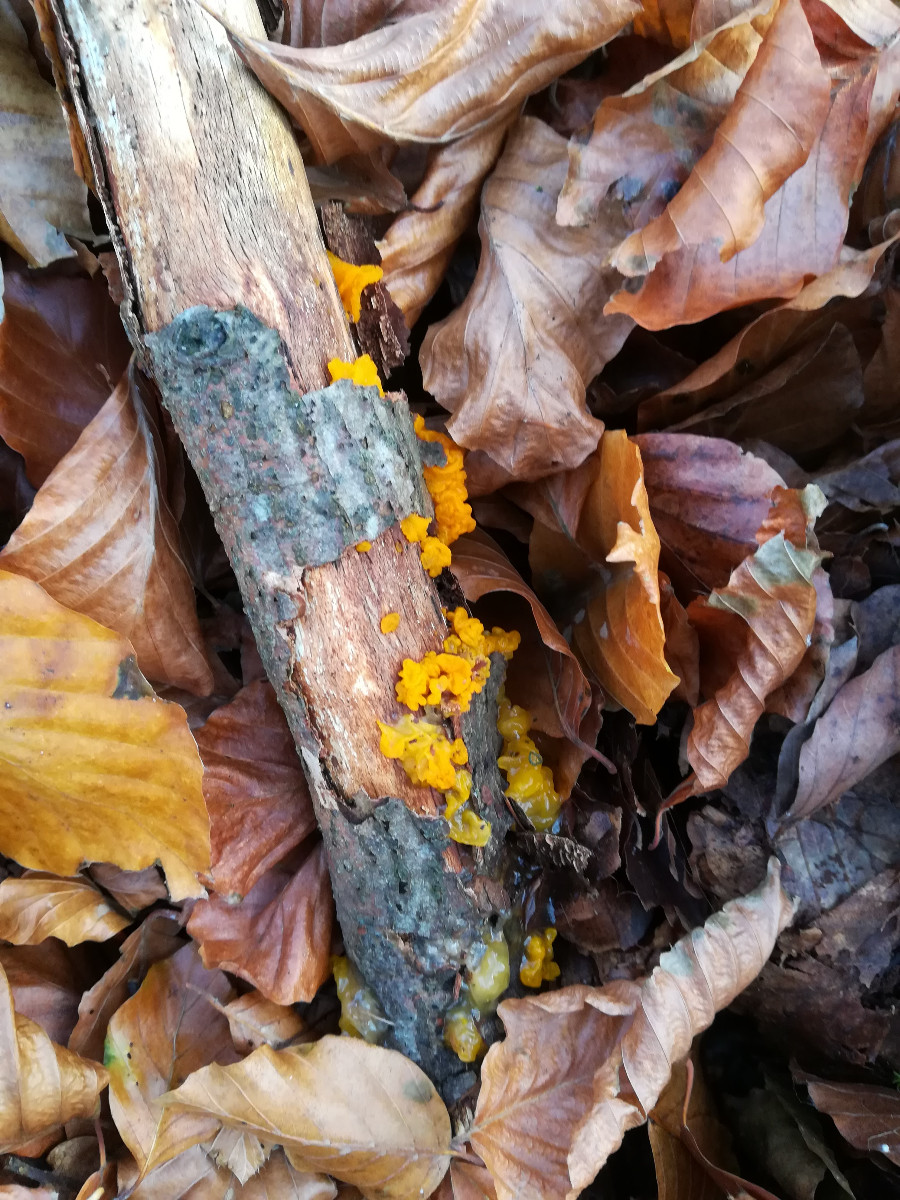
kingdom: Fungi
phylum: Basidiomycota
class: Tremellomycetes
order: Tremellales
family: Tremellaceae
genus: Tremella
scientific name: Tremella mesenterica
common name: gul bævresvamp
